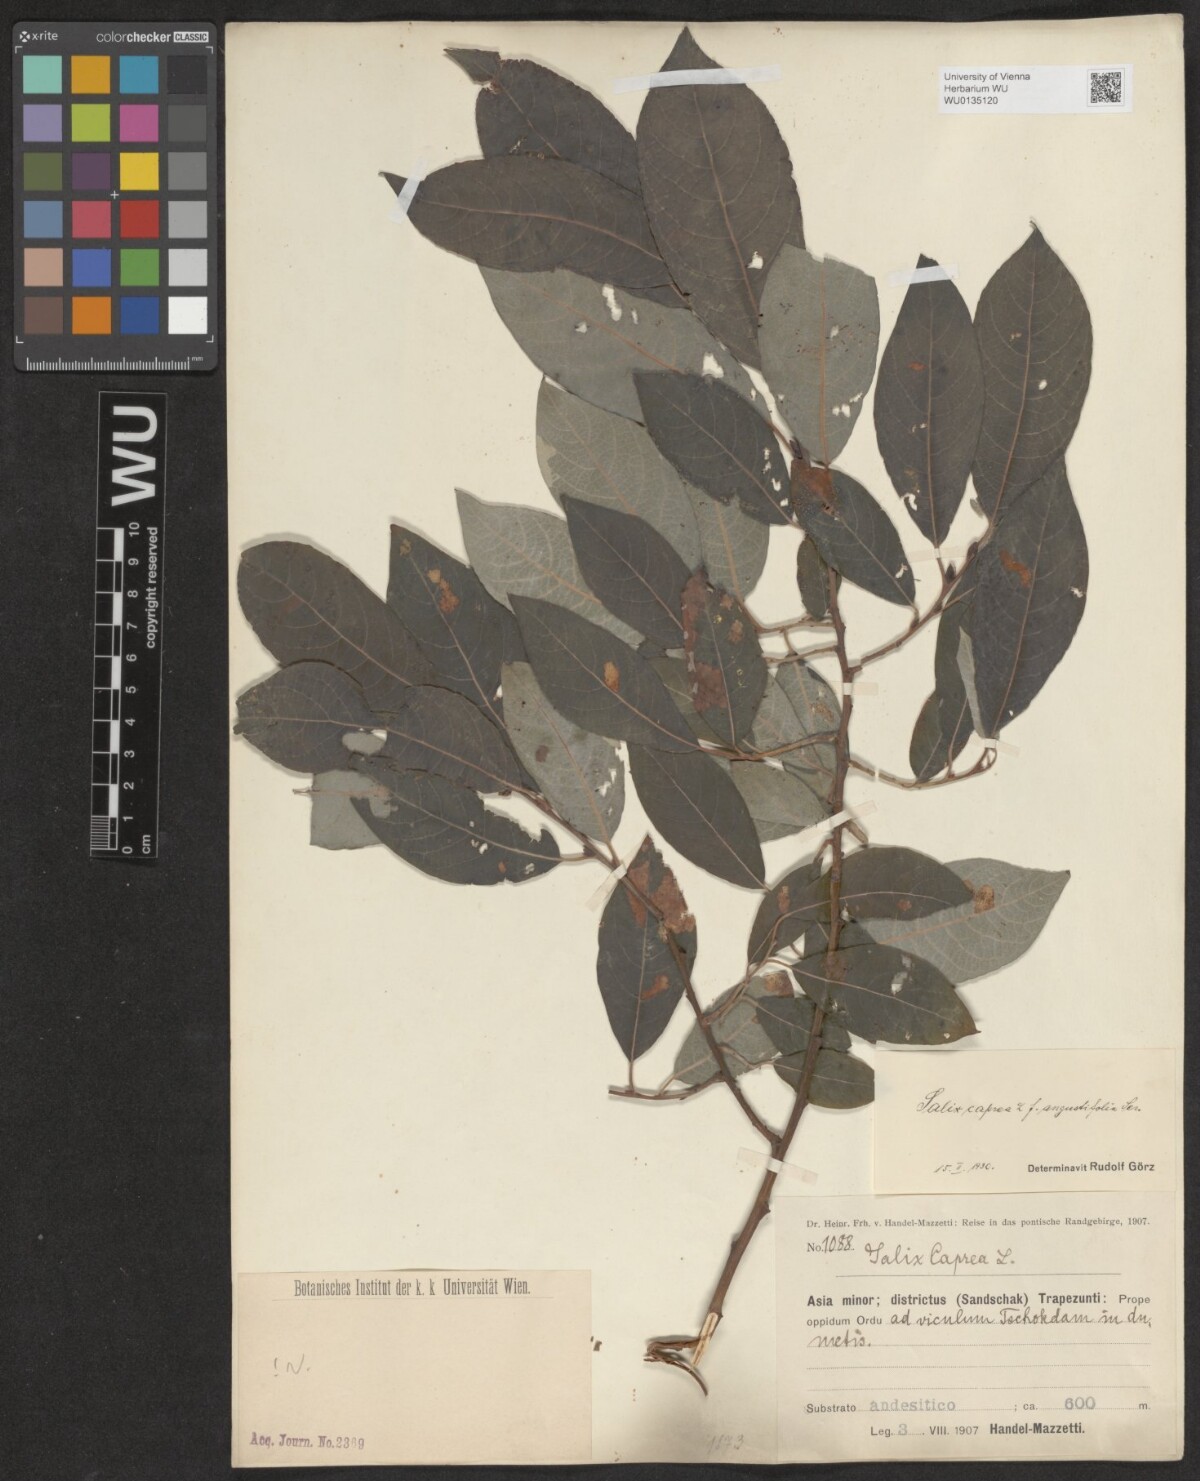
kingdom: Plantae
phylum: Tracheophyta
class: Magnoliopsida
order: Malpighiales
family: Salicaceae
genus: Salix
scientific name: Salix caprea
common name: Goat willow
